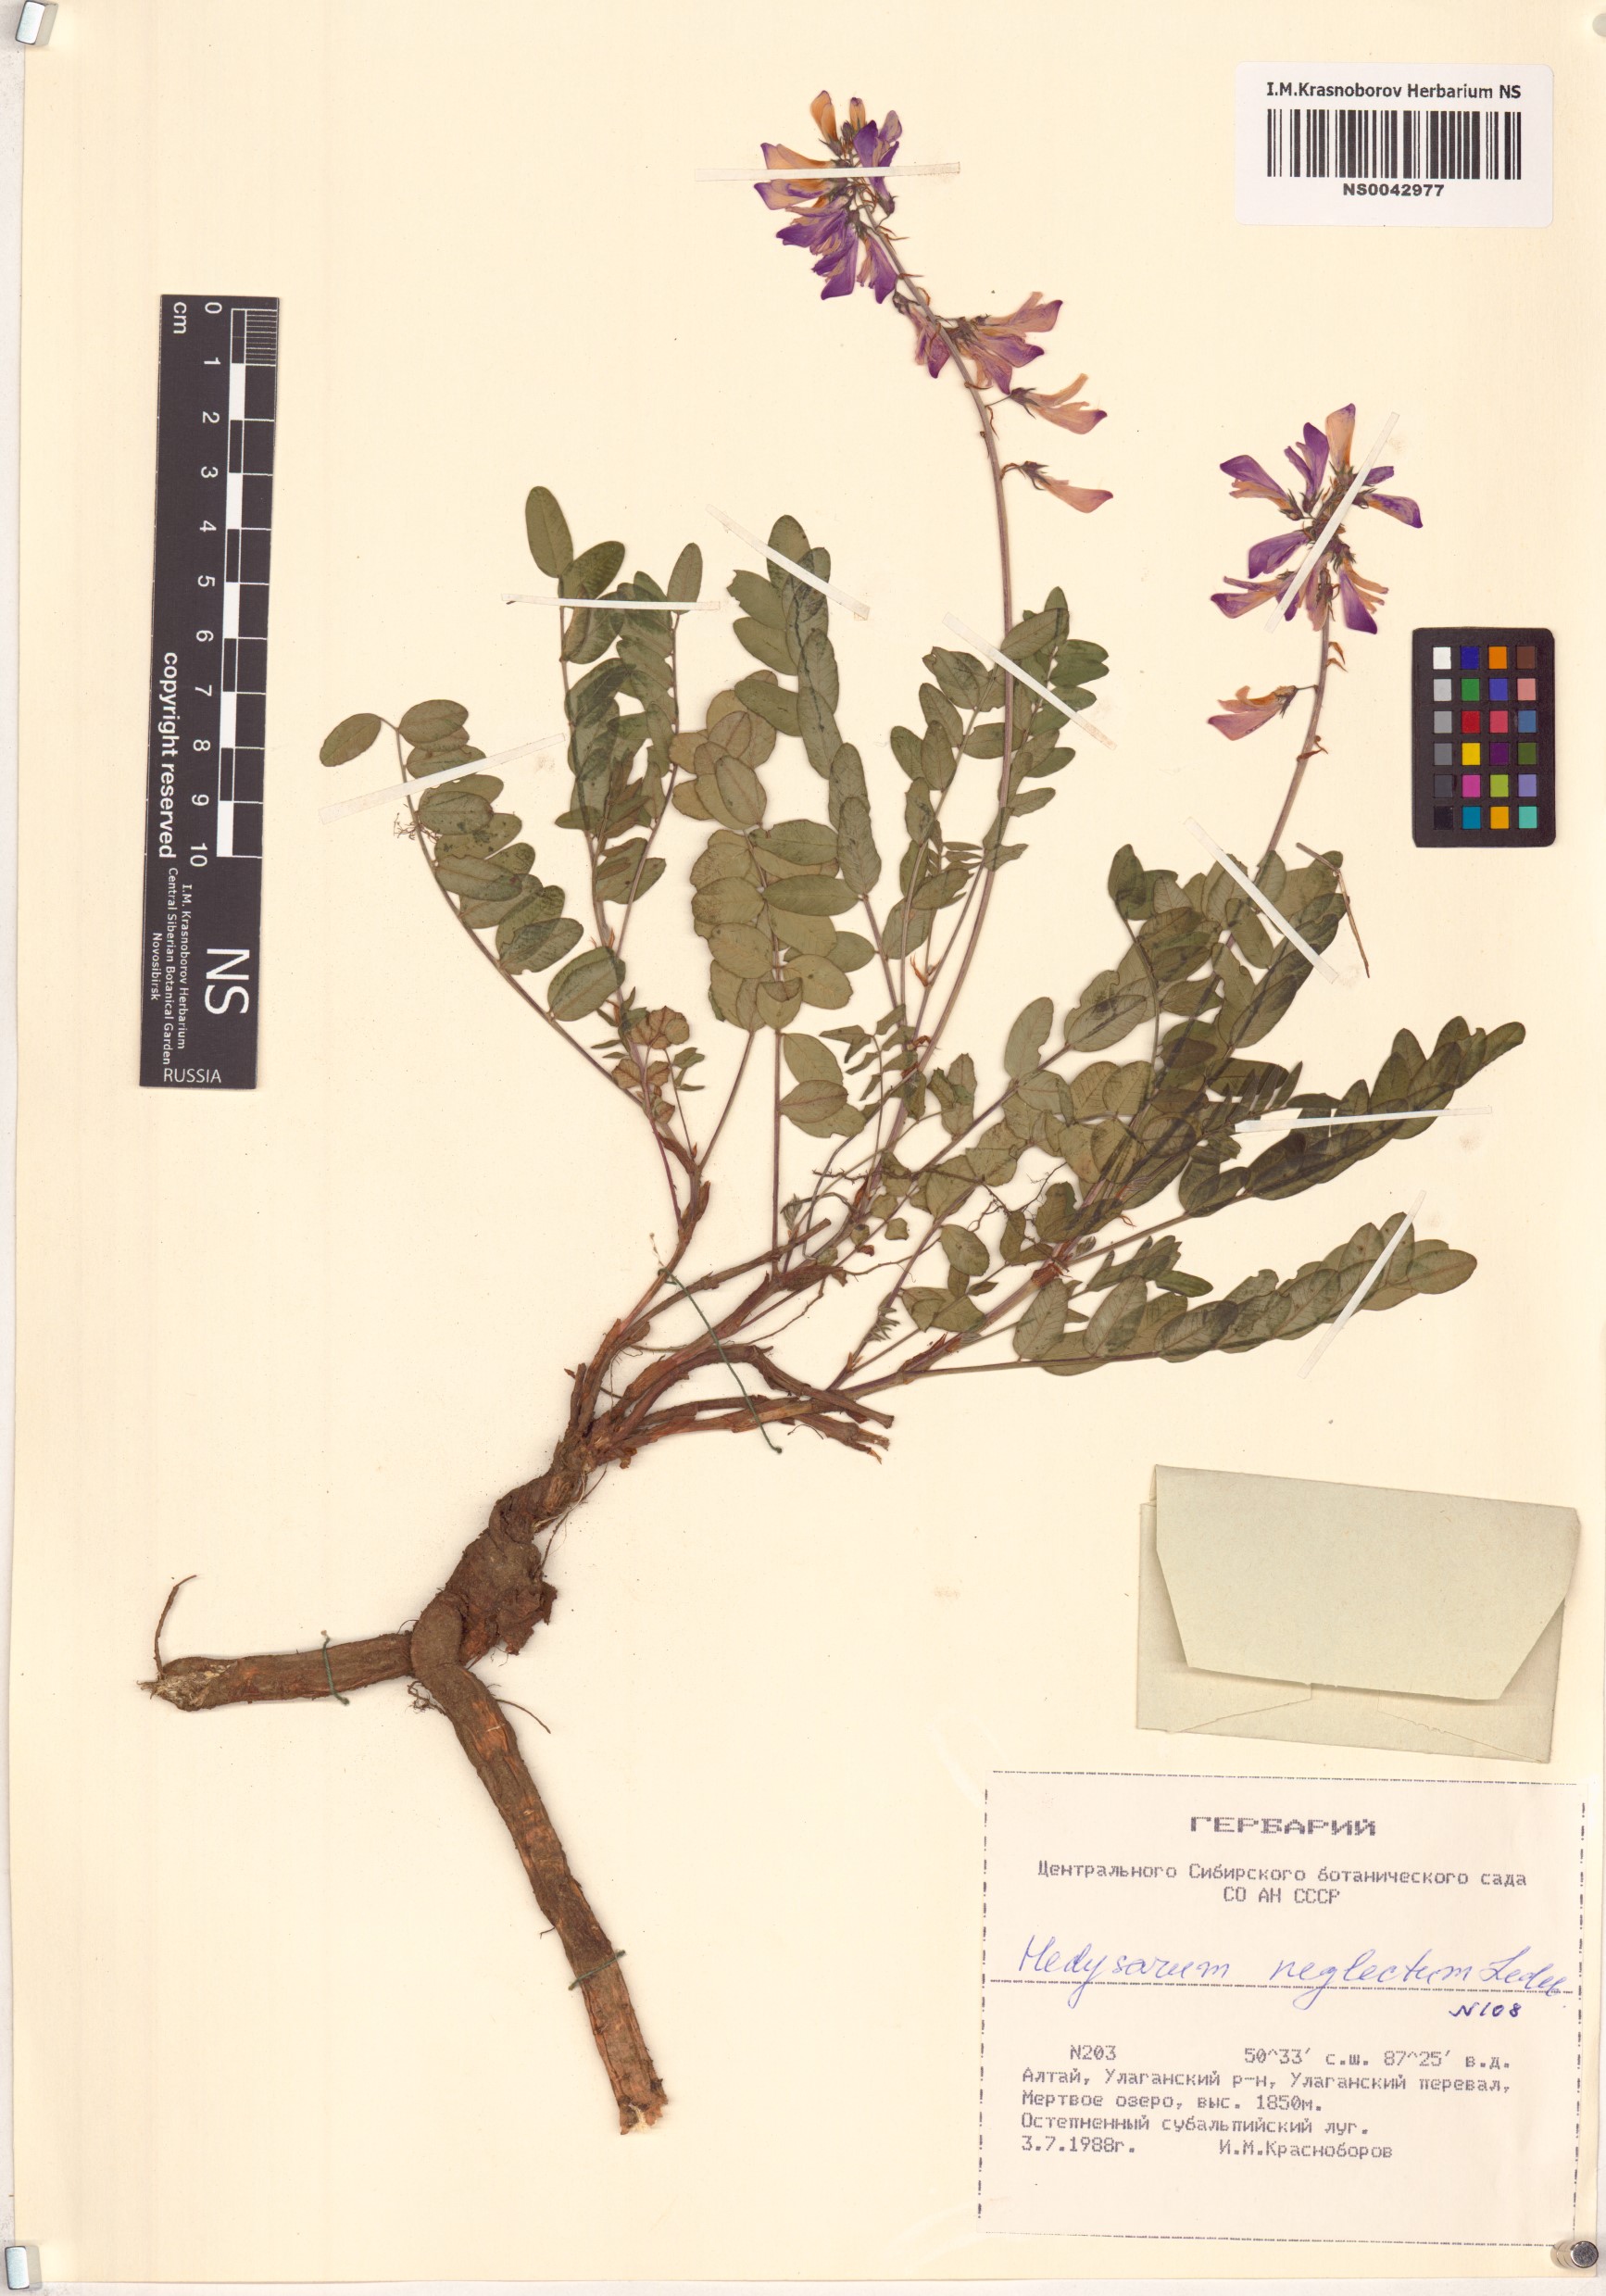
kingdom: Plantae
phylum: Tracheophyta
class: Magnoliopsida
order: Fabales
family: Fabaceae
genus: Hedysarum
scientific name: Hedysarum neglectum
